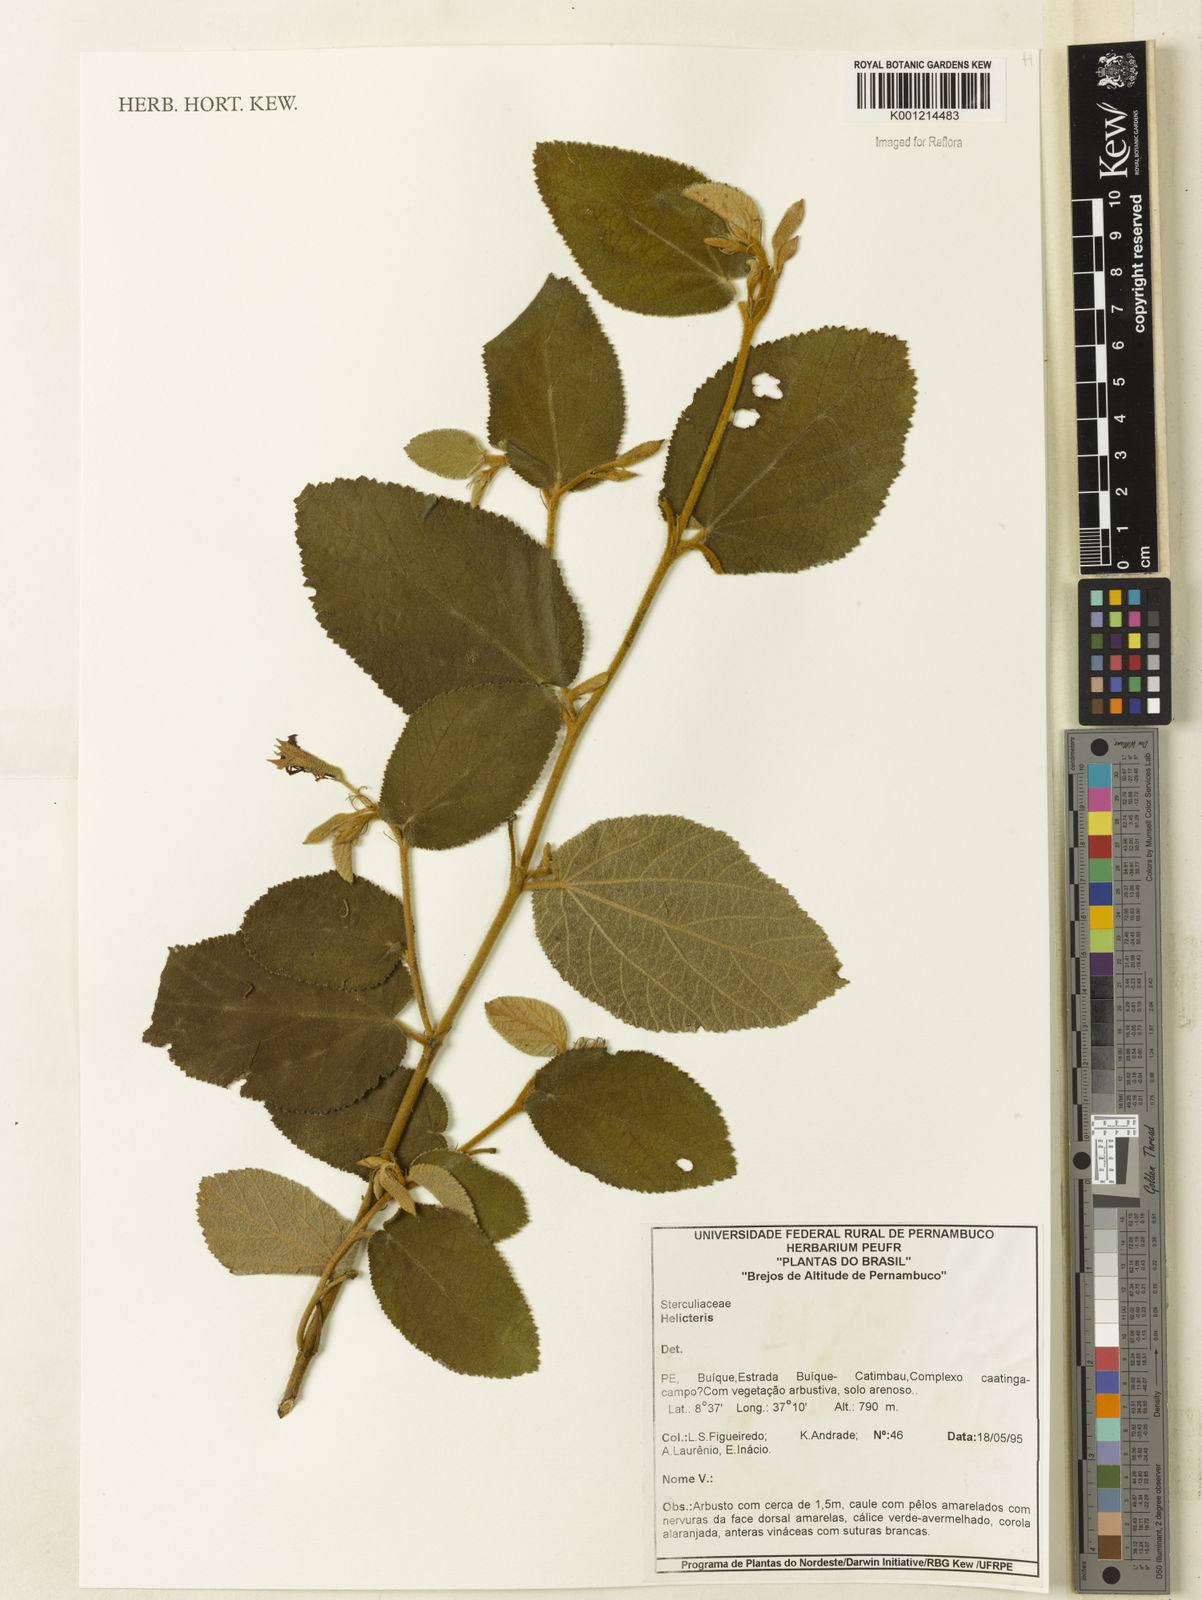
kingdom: Plantae
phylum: Tracheophyta
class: Magnoliopsida
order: Malvales
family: Malvaceae
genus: Helicteres
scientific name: Helicteres
